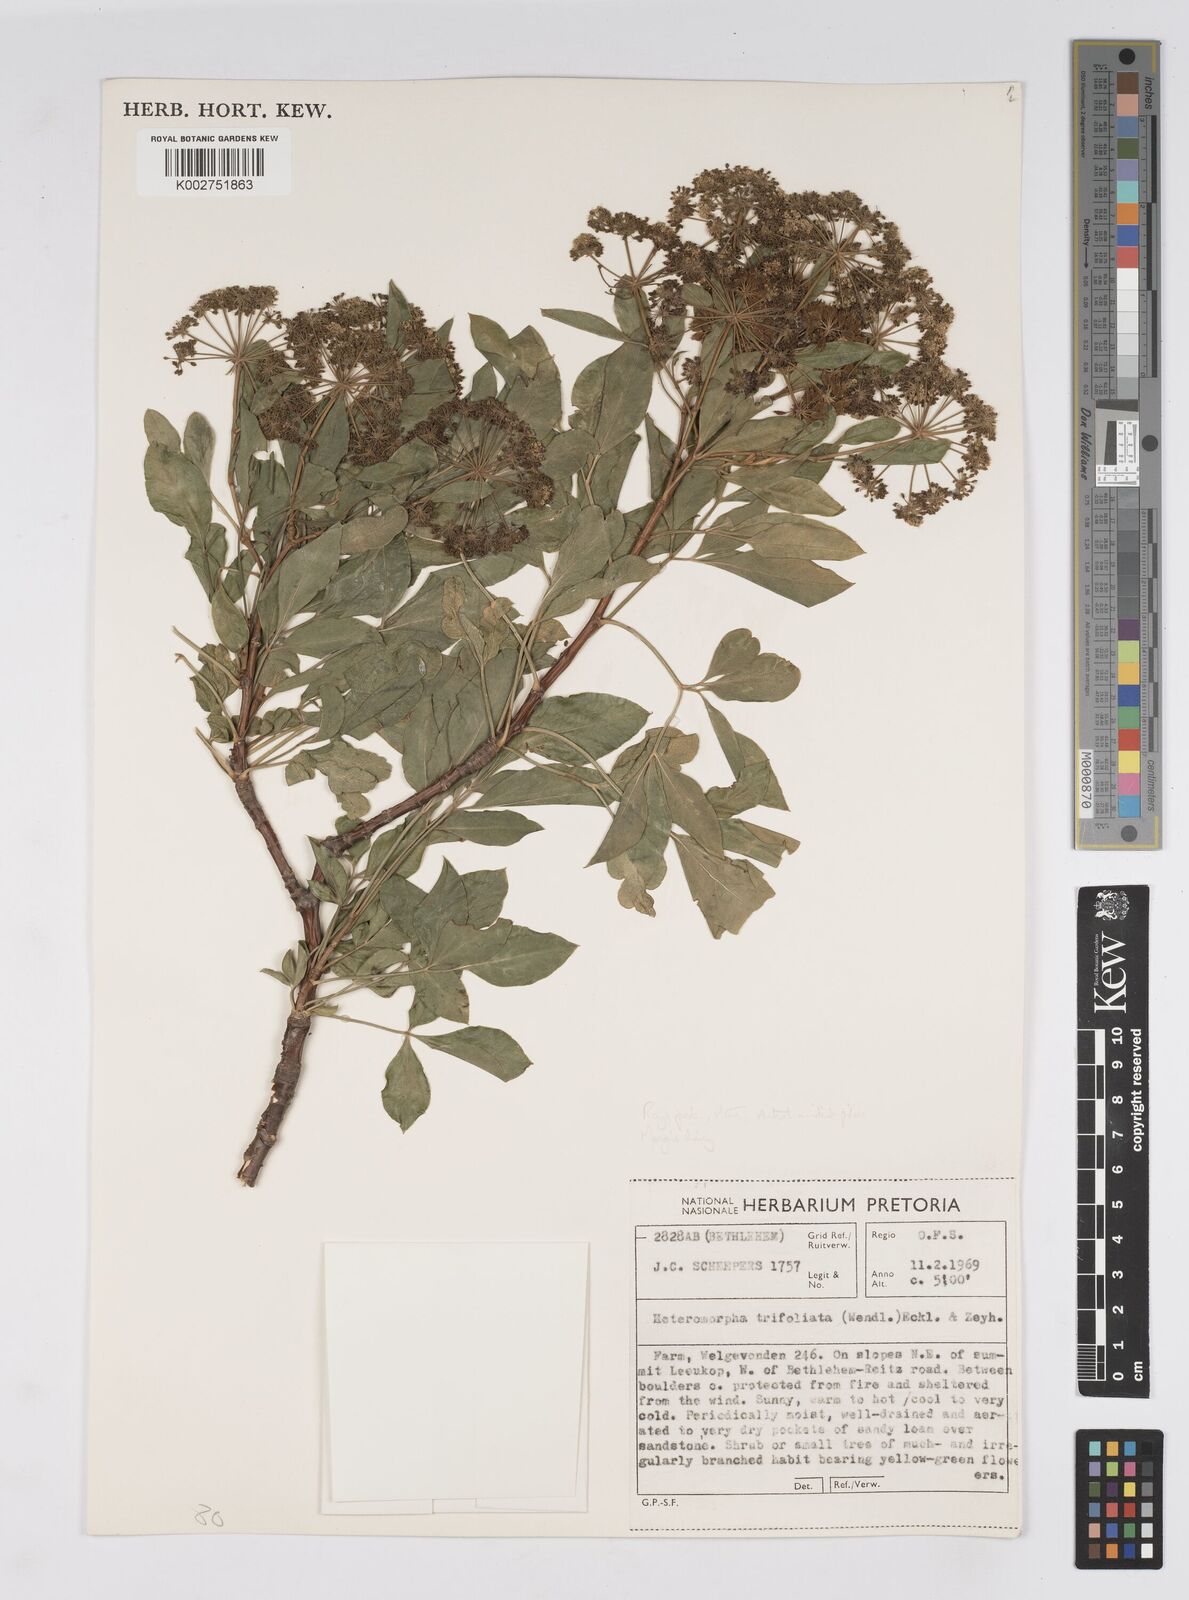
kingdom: Plantae
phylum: Tracheophyta
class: Magnoliopsida
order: Apiales
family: Apiaceae
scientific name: Apiaceae
